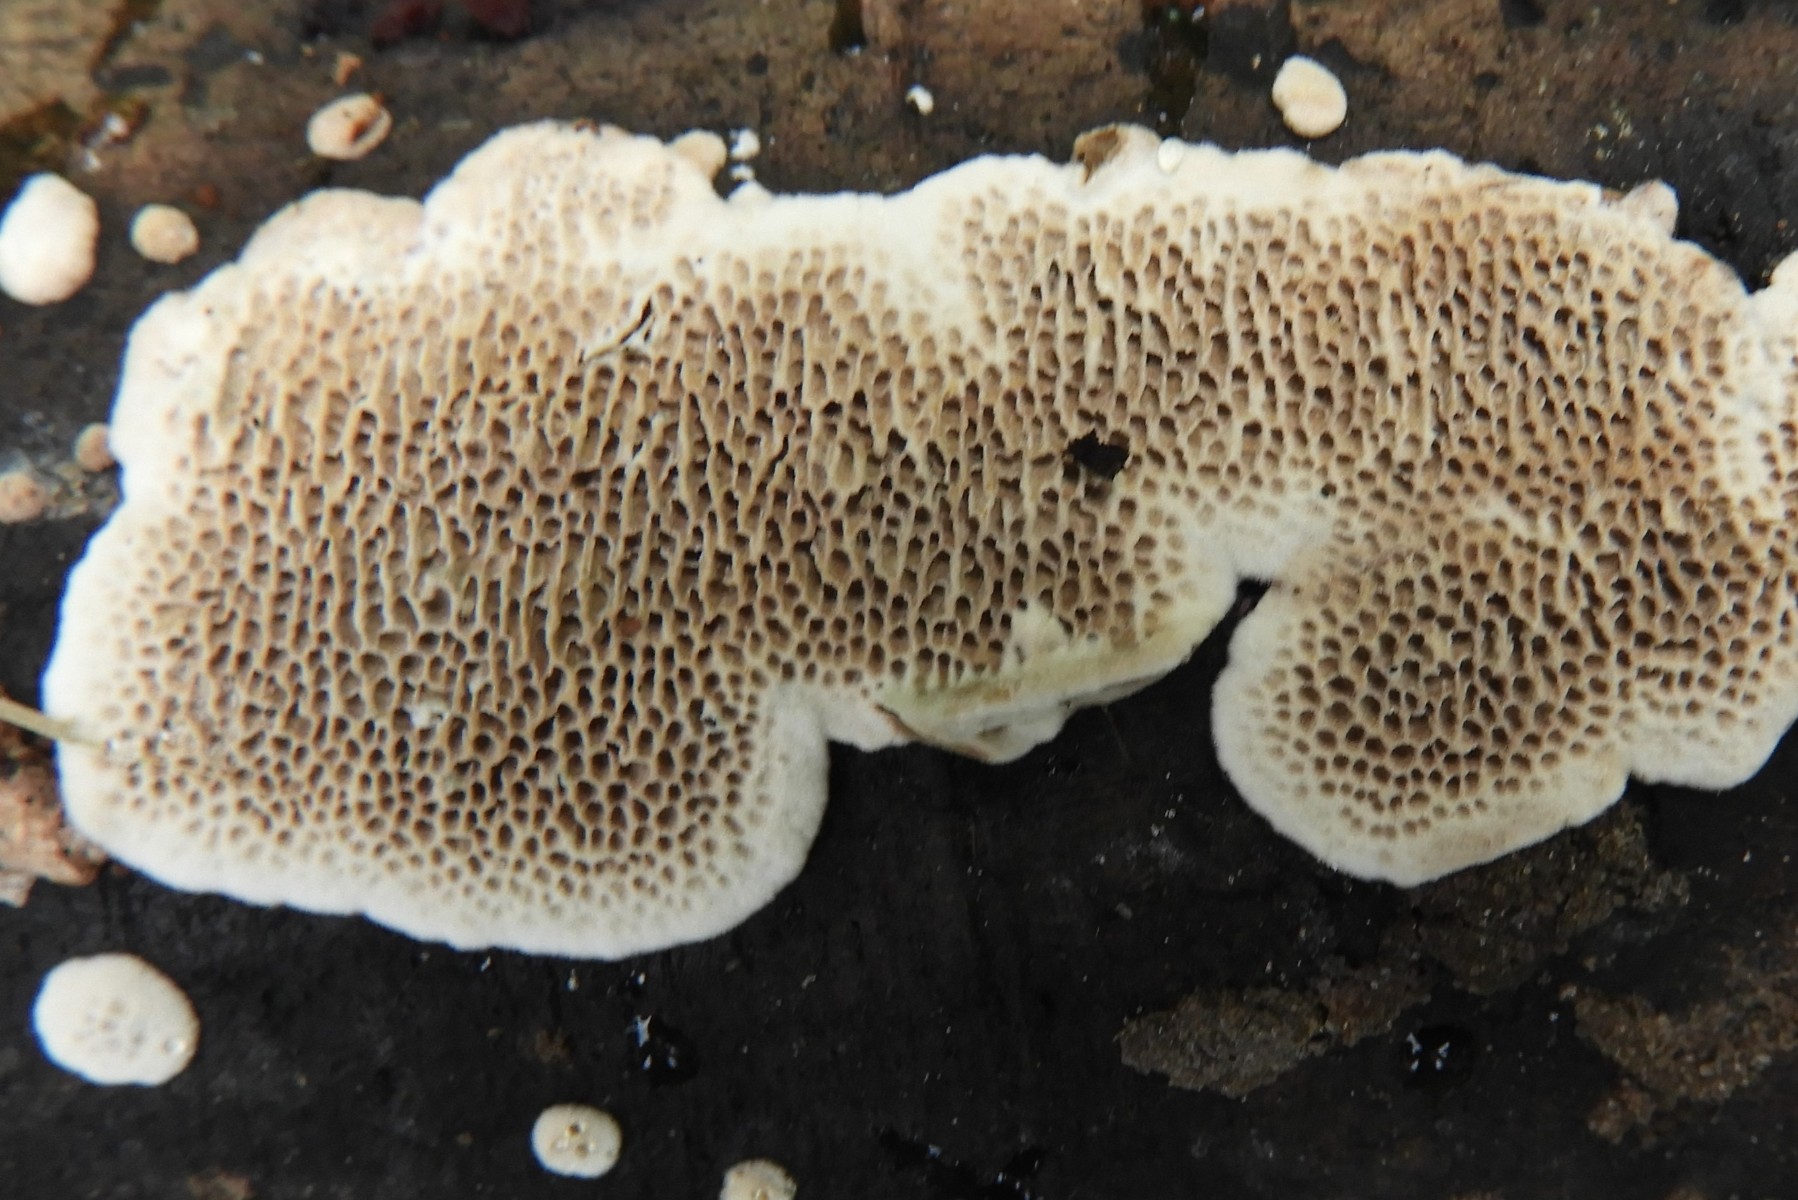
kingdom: Fungi
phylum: Basidiomycota
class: Agaricomycetes
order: Polyporales
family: Polyporaceae
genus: Podofomes
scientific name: Podofomes mollis
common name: blød begporesvamp
